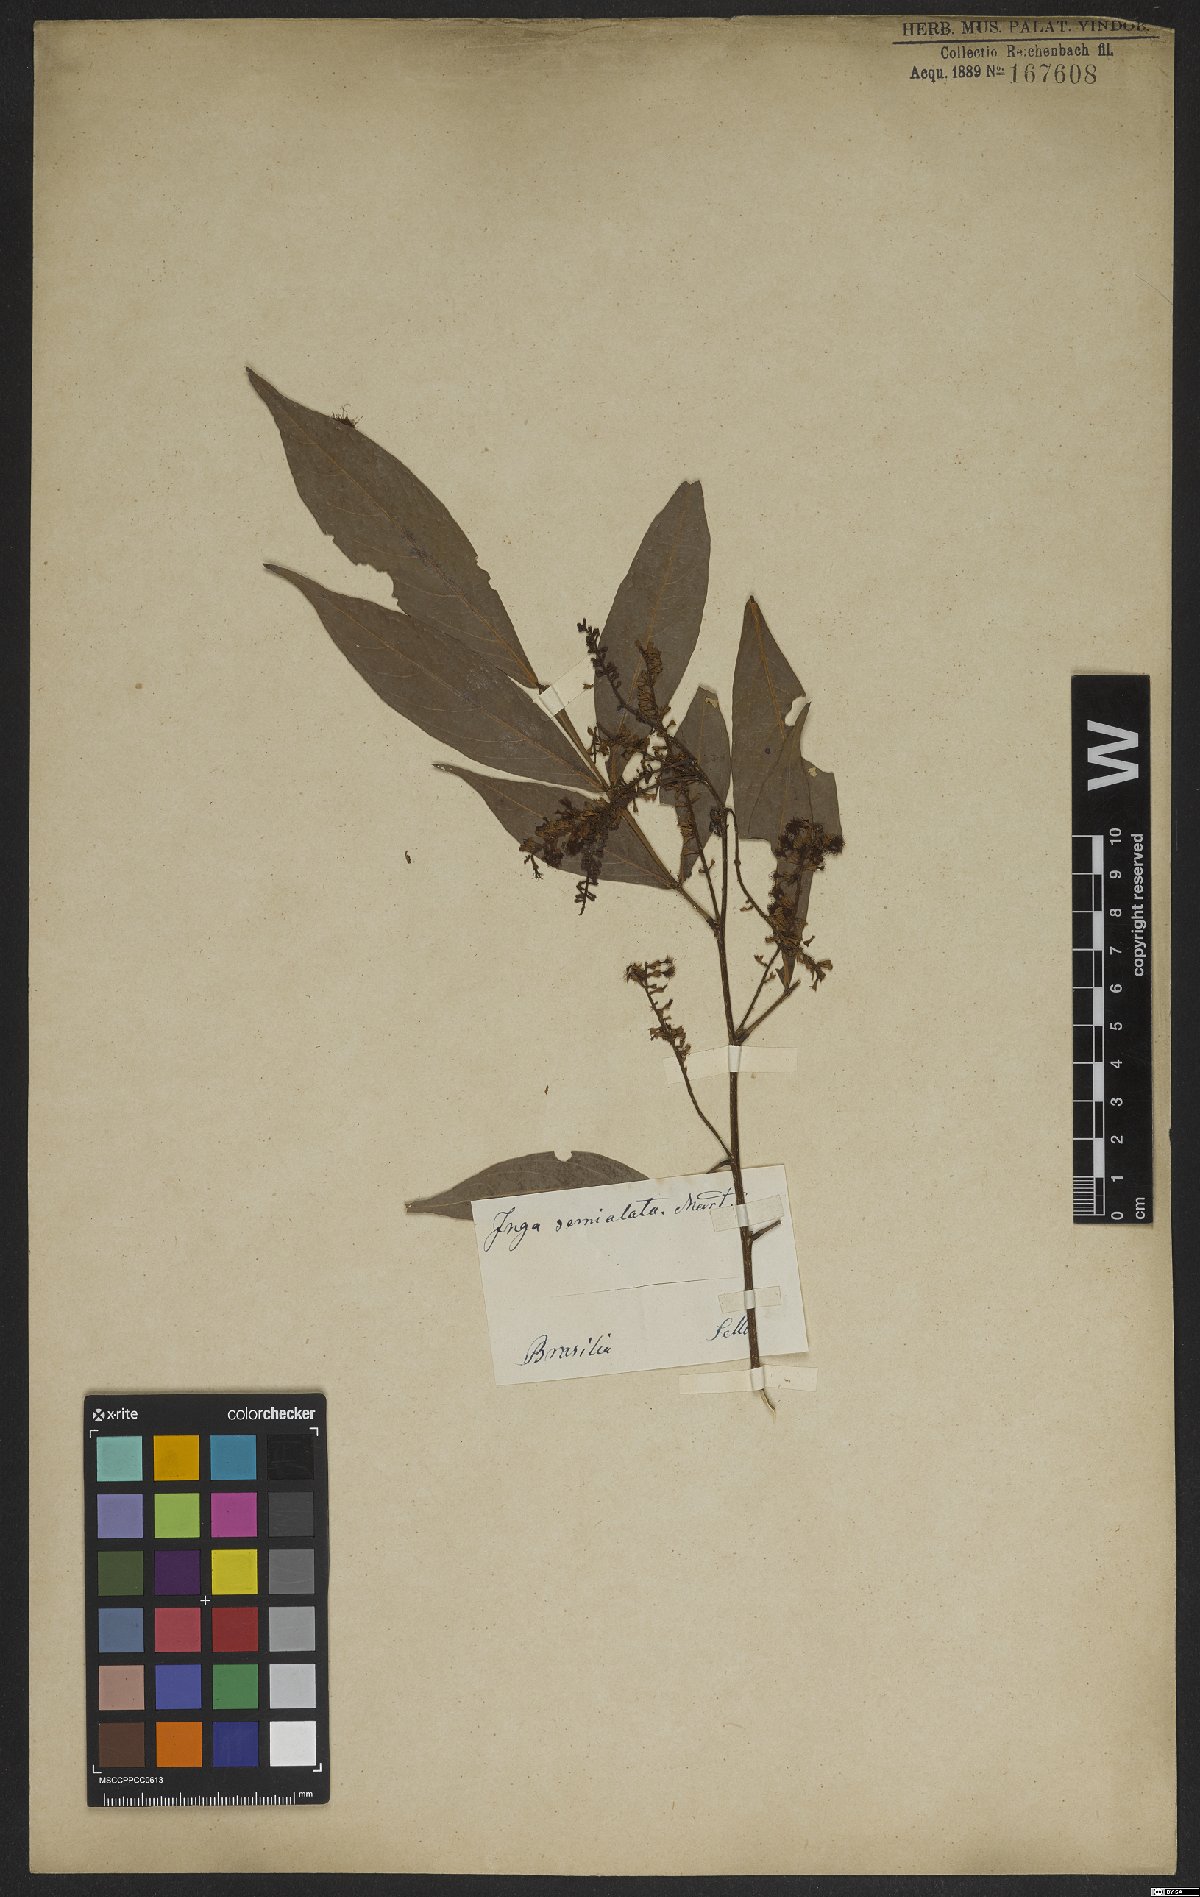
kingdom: Plantae
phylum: Tracheophyta
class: Magnoliopsida
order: Fabales
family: Fabaceae
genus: Inga
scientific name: Inga marginata
